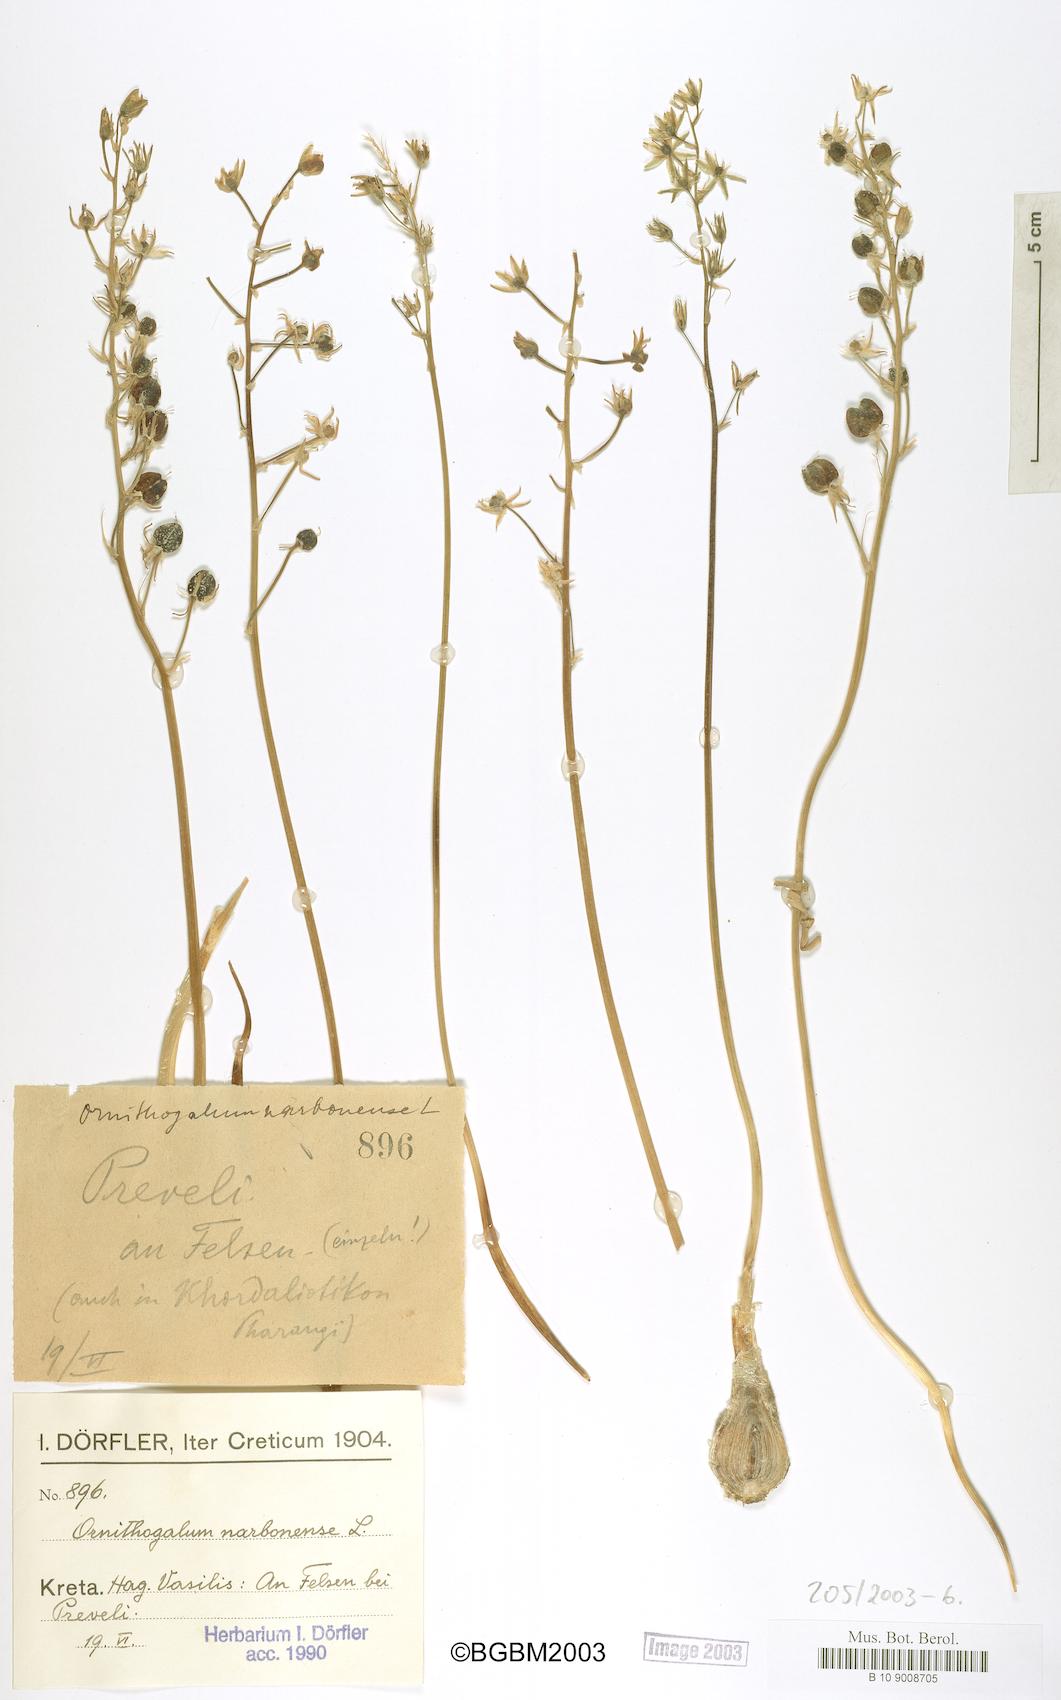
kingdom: Plantae
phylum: Tracheophyta
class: Liliopsida
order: Asparagales
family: Asparagaceae
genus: Ornithogalum
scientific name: Ornithogalum narbonense
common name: Bath-asparagus
